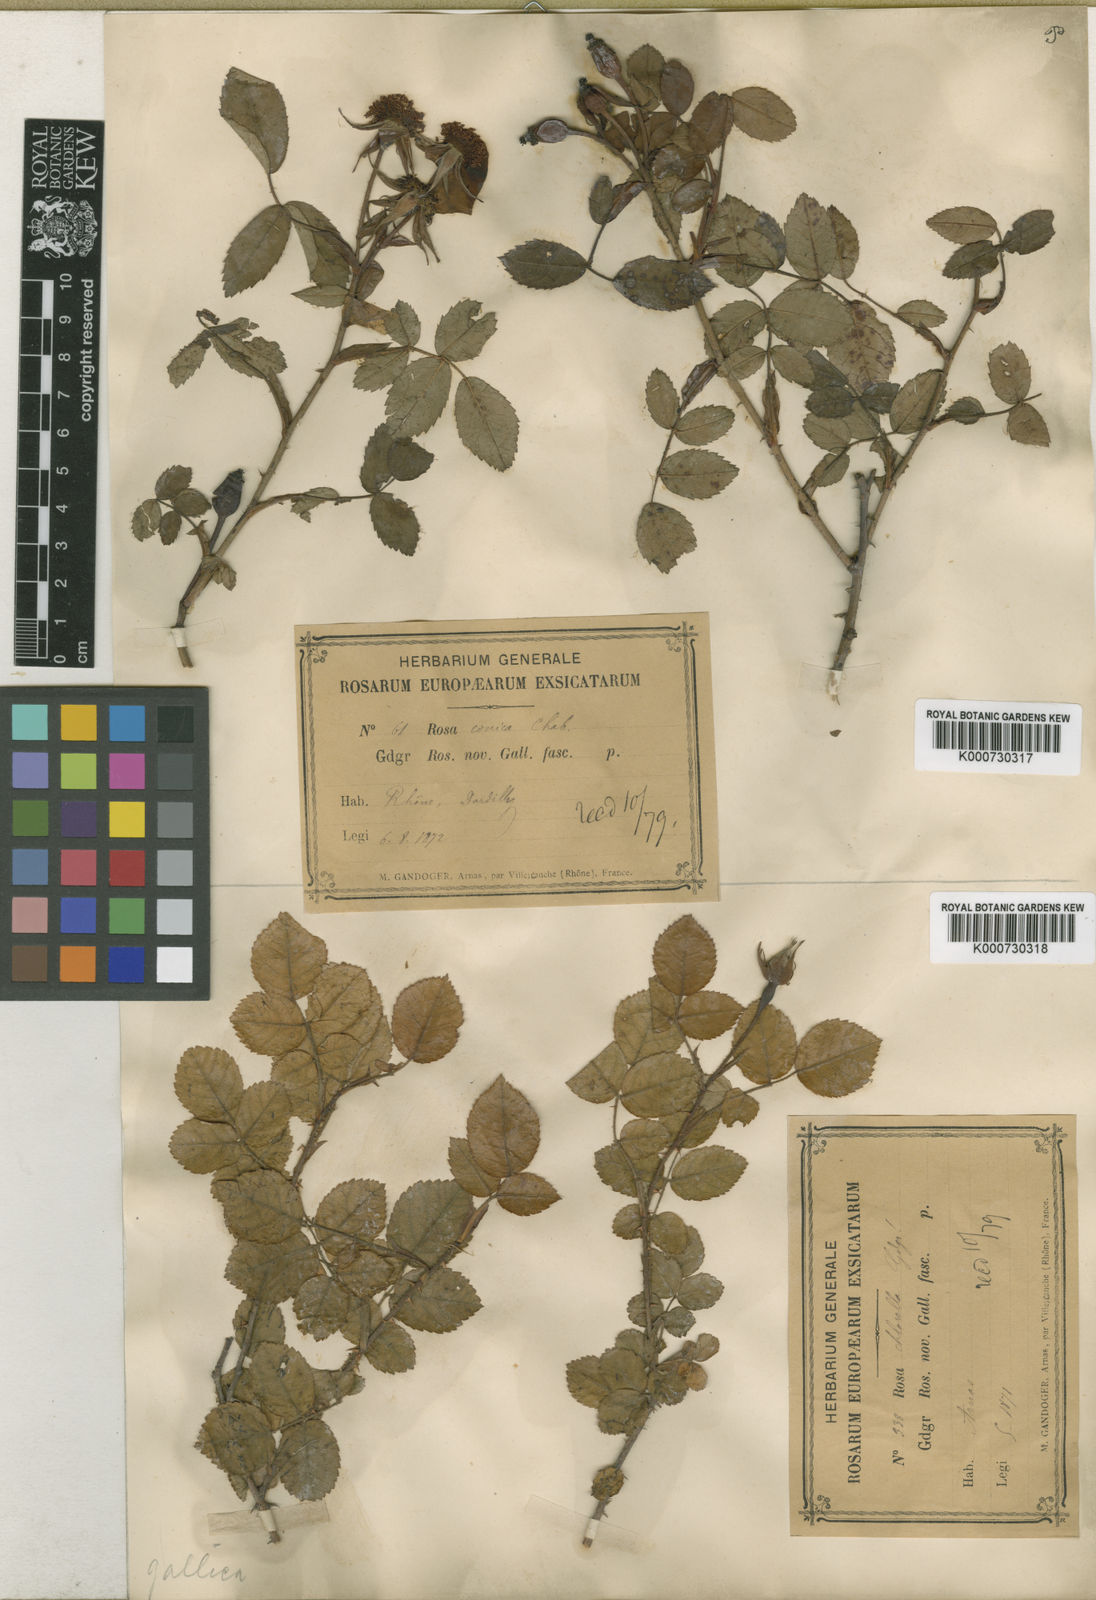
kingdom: Plantae
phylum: Tracheophyta
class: Magnoliopsida
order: Rosales
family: Rosaceae
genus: Rosa
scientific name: Rosa gallica
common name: French rose
